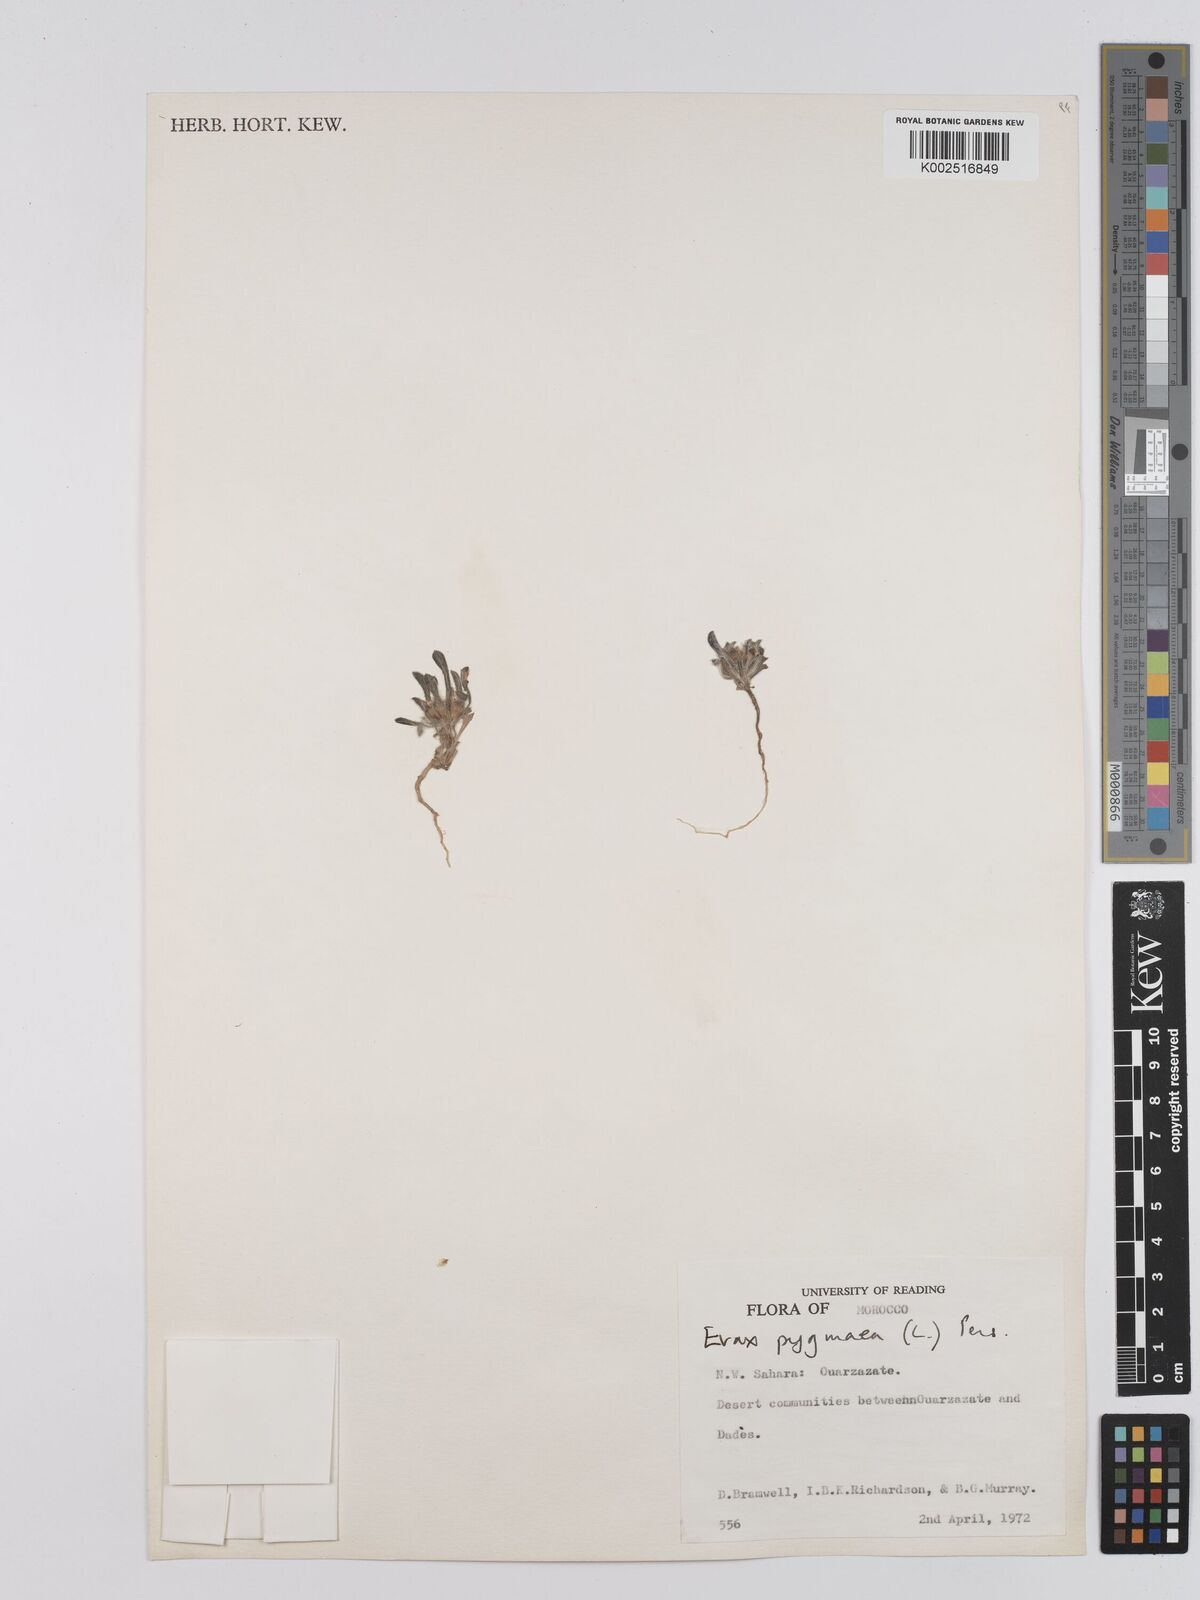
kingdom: Plantae
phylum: Tracheophyta
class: Magnoliopsida
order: Asterales
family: Asteraceae
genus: Filago
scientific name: Filago pygmaea
